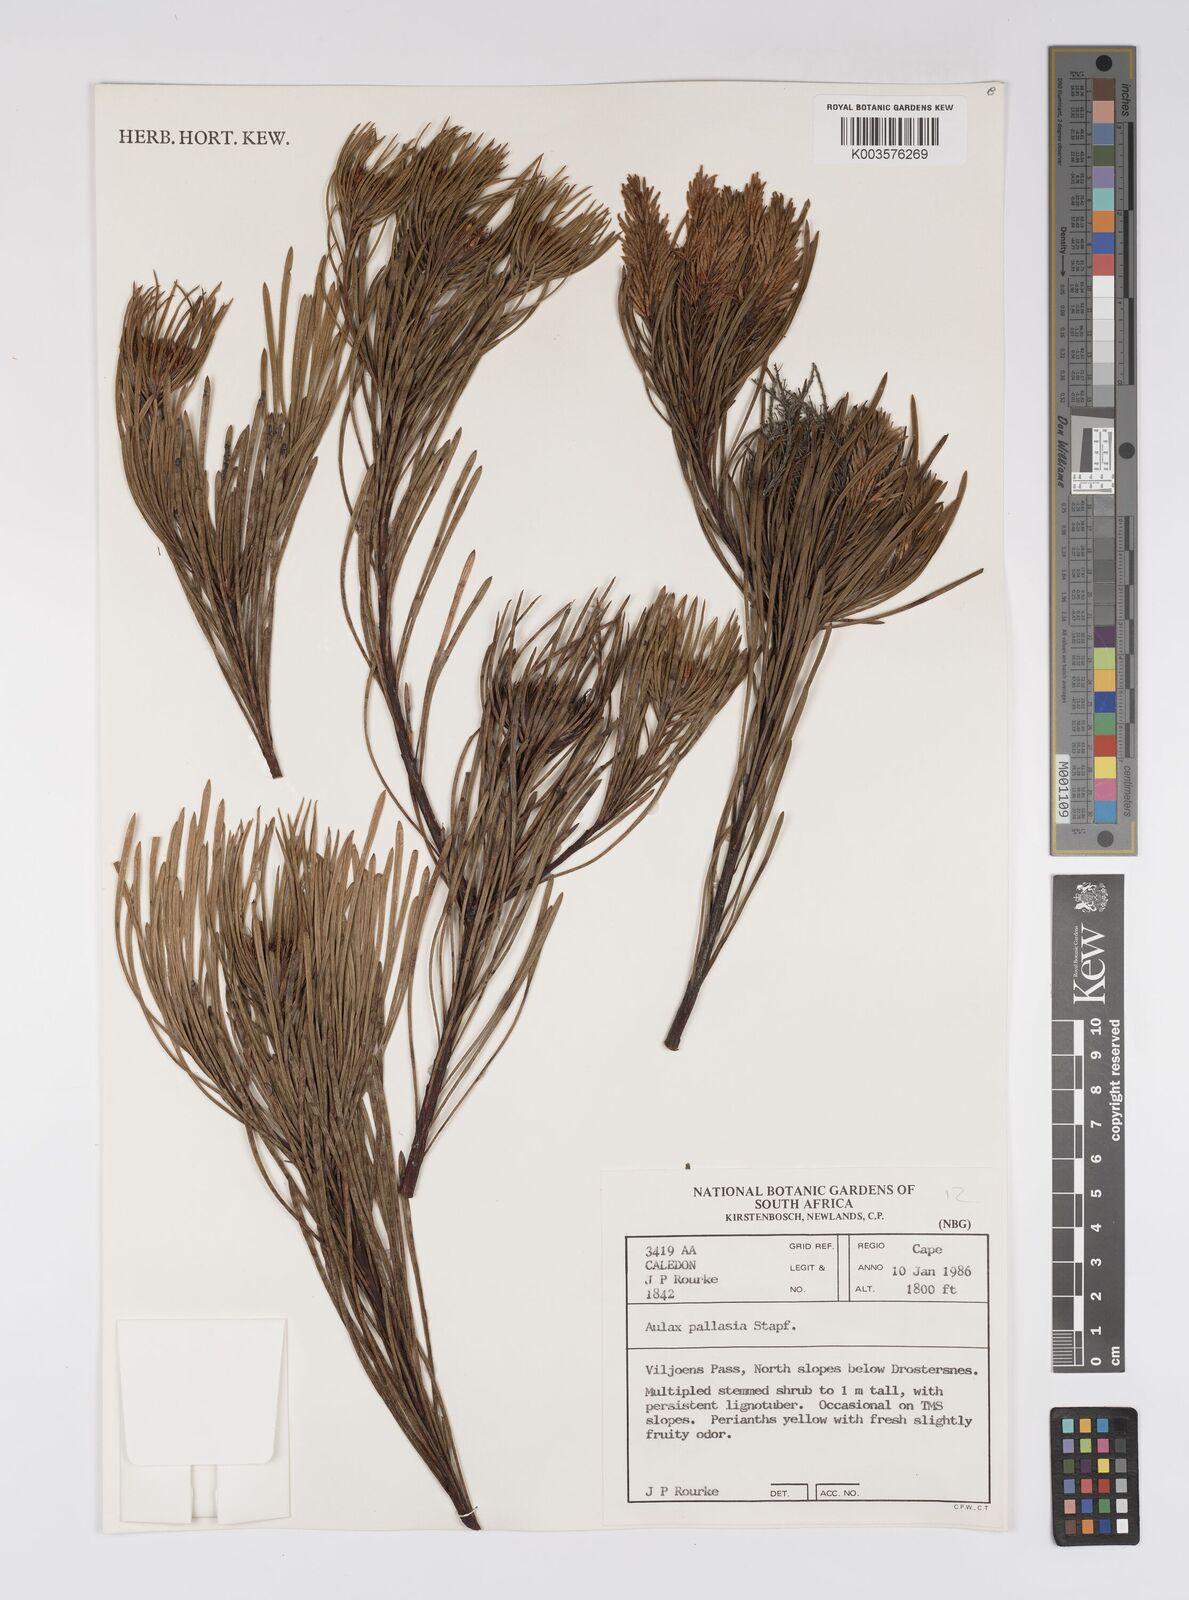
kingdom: Plantae
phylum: Tracheophyta
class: Magnoliopsida
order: Proteales
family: Proteaceae
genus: Aulax
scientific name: Aulax pallasia
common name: Needle-leaf featherbush
